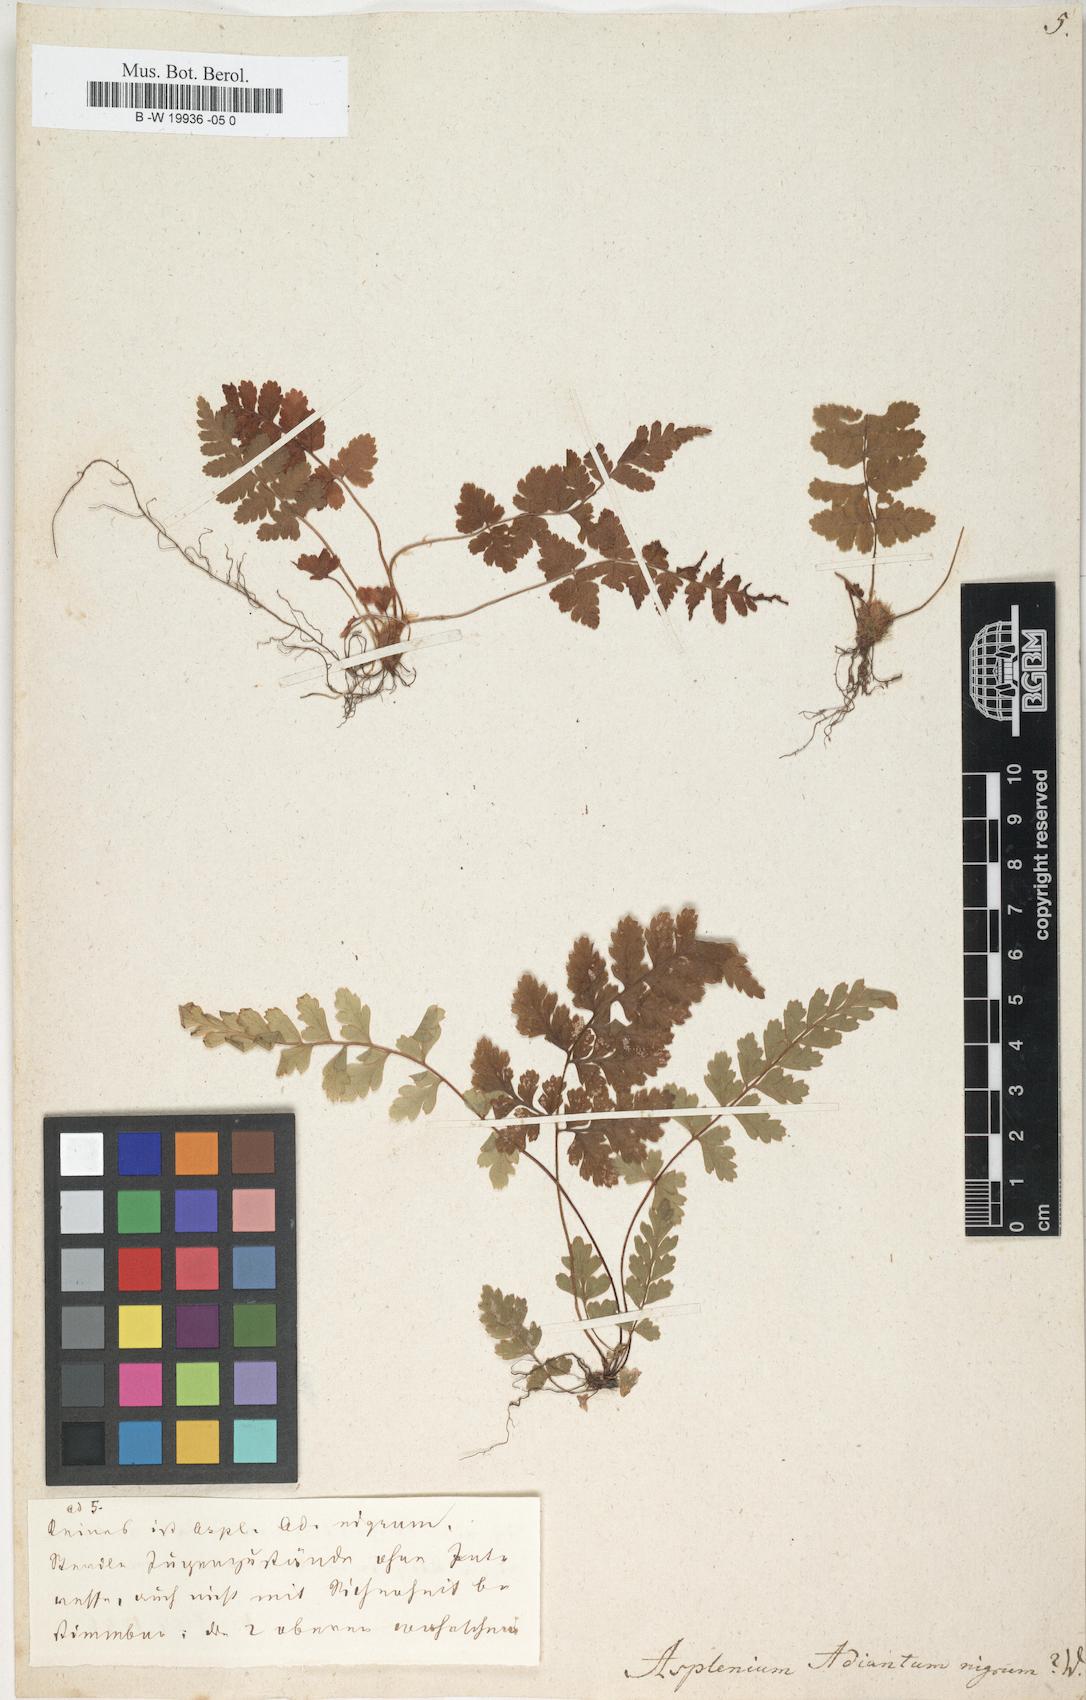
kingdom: Plantae
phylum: Tracheophyta
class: Polypodiopsida
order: Polypodiales
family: Aspleniaceae
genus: Asplenium
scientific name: Asplenium adiantum-nigrum
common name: Black spleenwort
